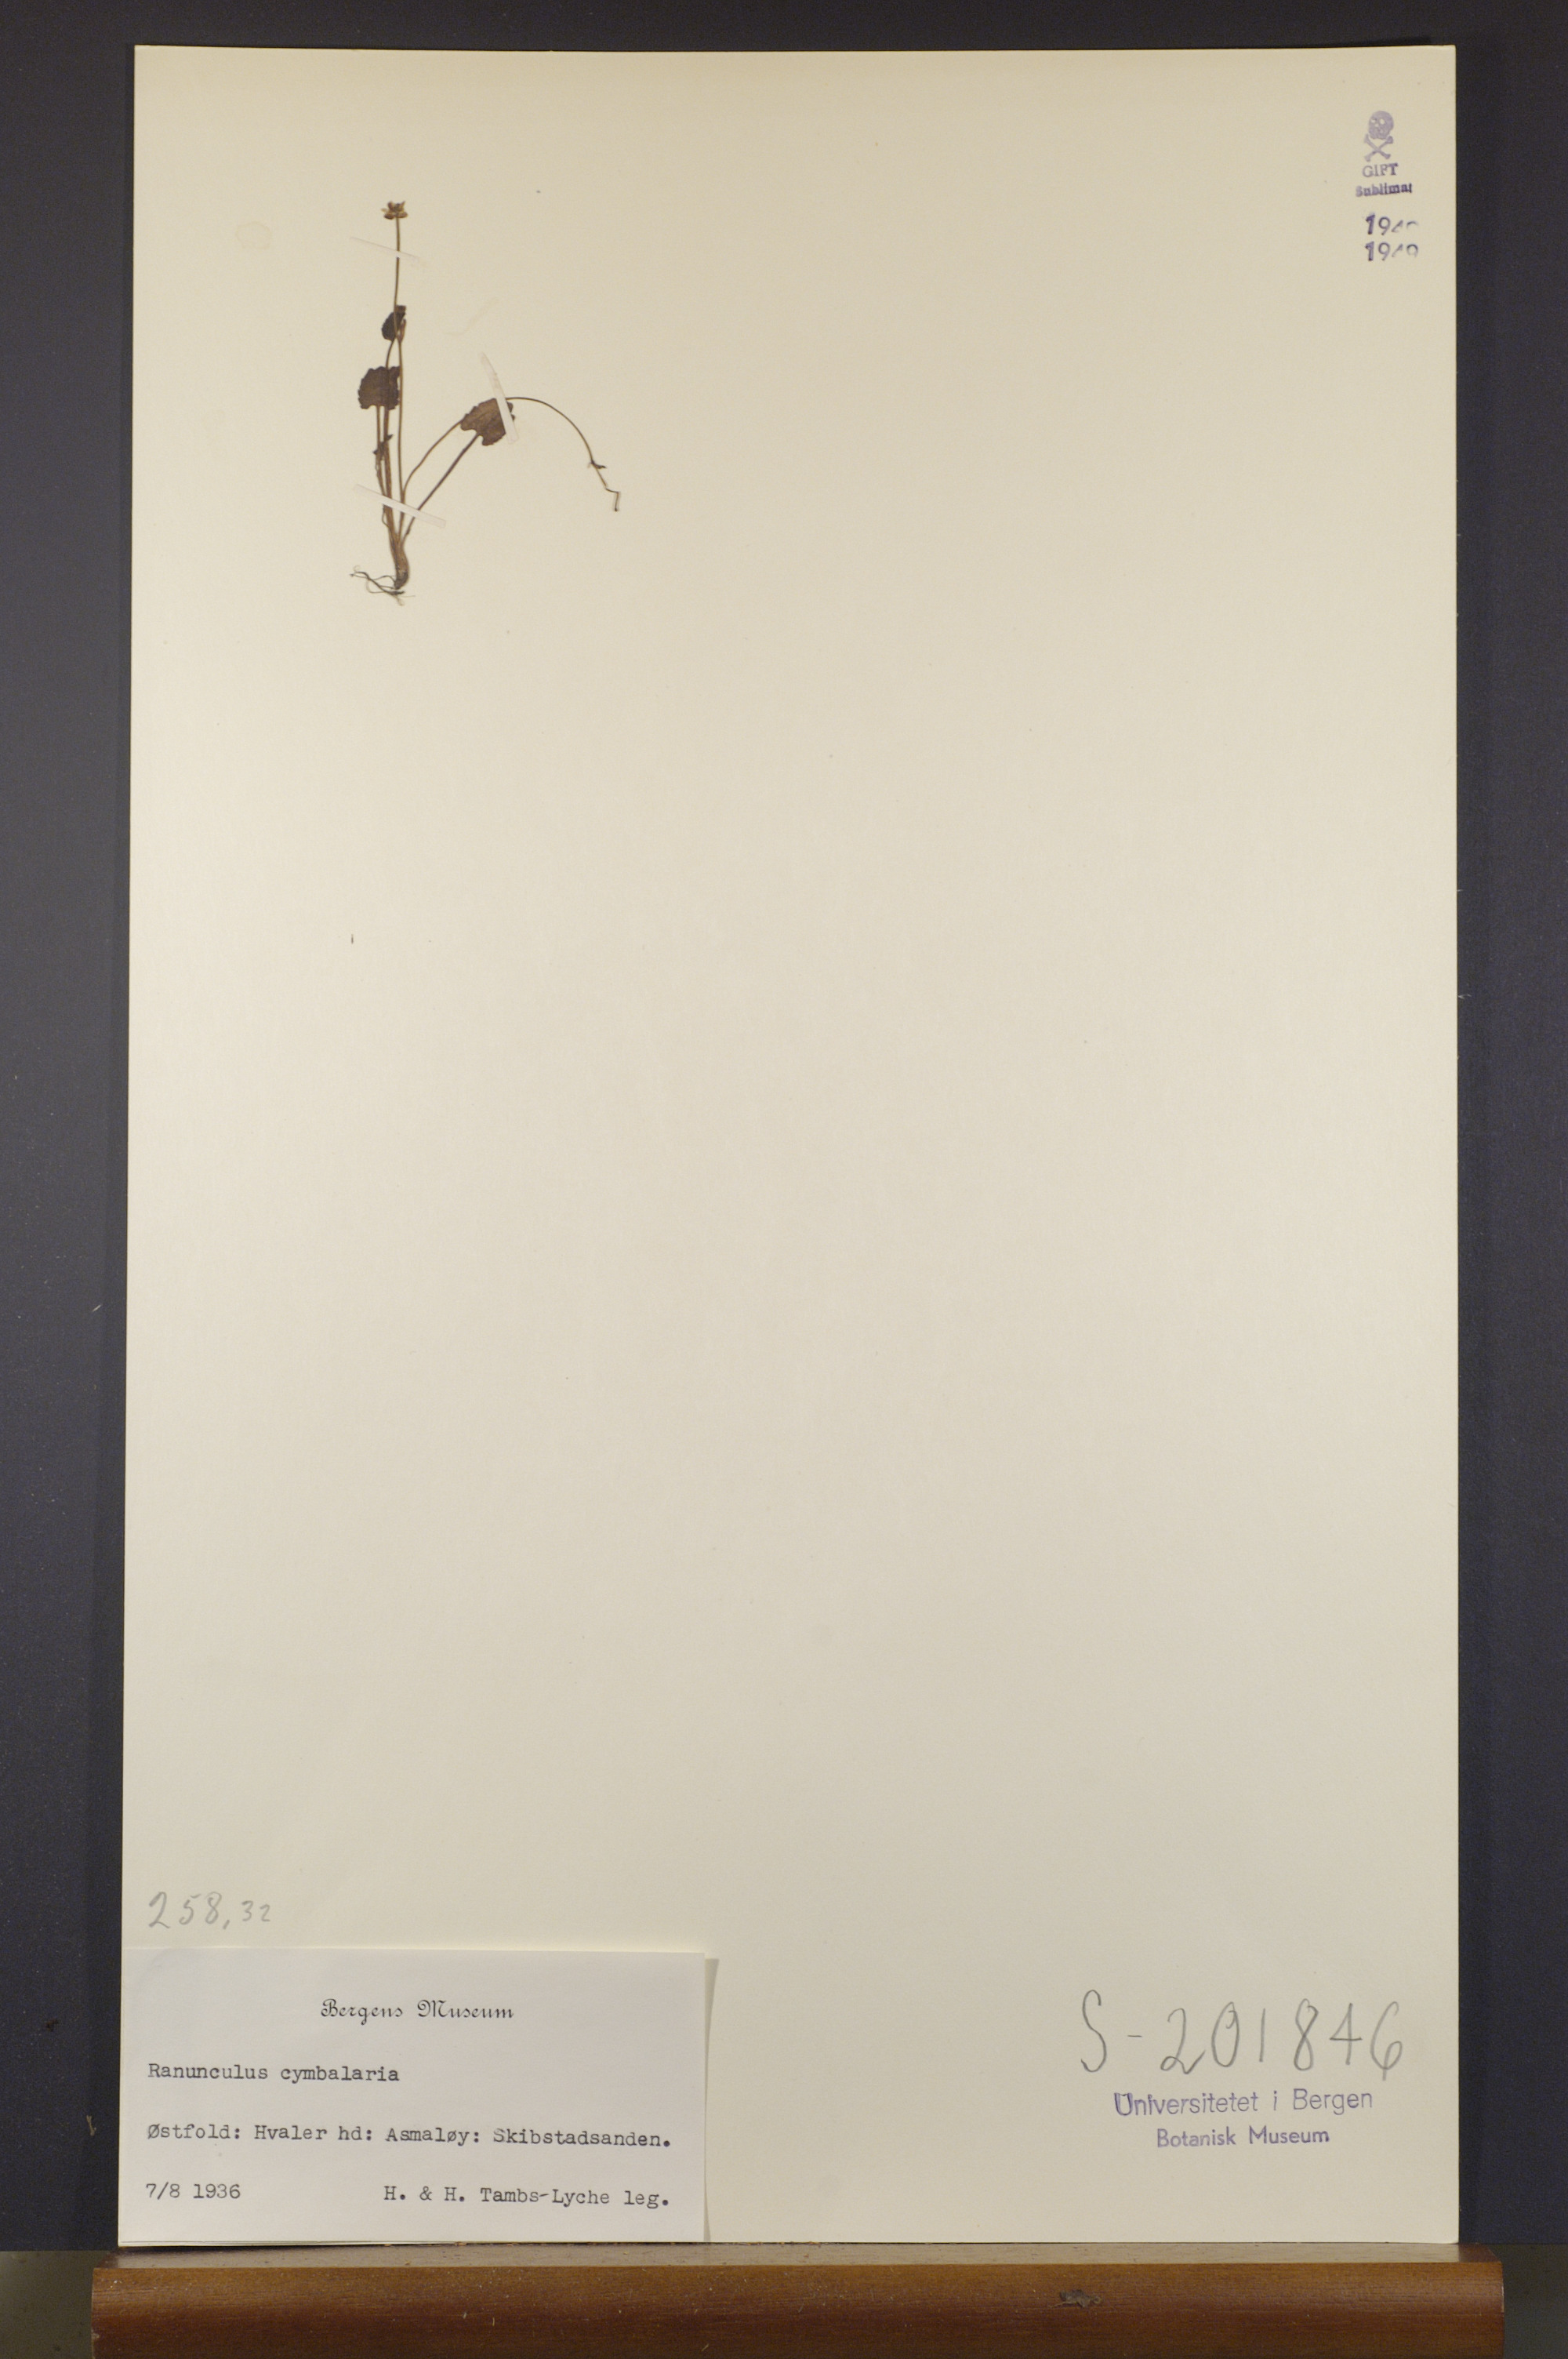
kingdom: Plantae
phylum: Tracheophyta
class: Magnoliopsida
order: Ranunculales
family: Ranunculaceae
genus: Halerpestes
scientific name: Halerpestes cymbalaria
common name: Seaside crowfoot
